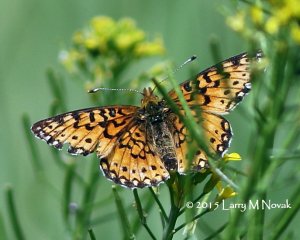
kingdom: Animalia
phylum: Arthropoda
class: Insecta
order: Lepidoptera
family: Nymphalidae
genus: Boloria
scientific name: Boloria selene
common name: Silver-bordered Fritillary
